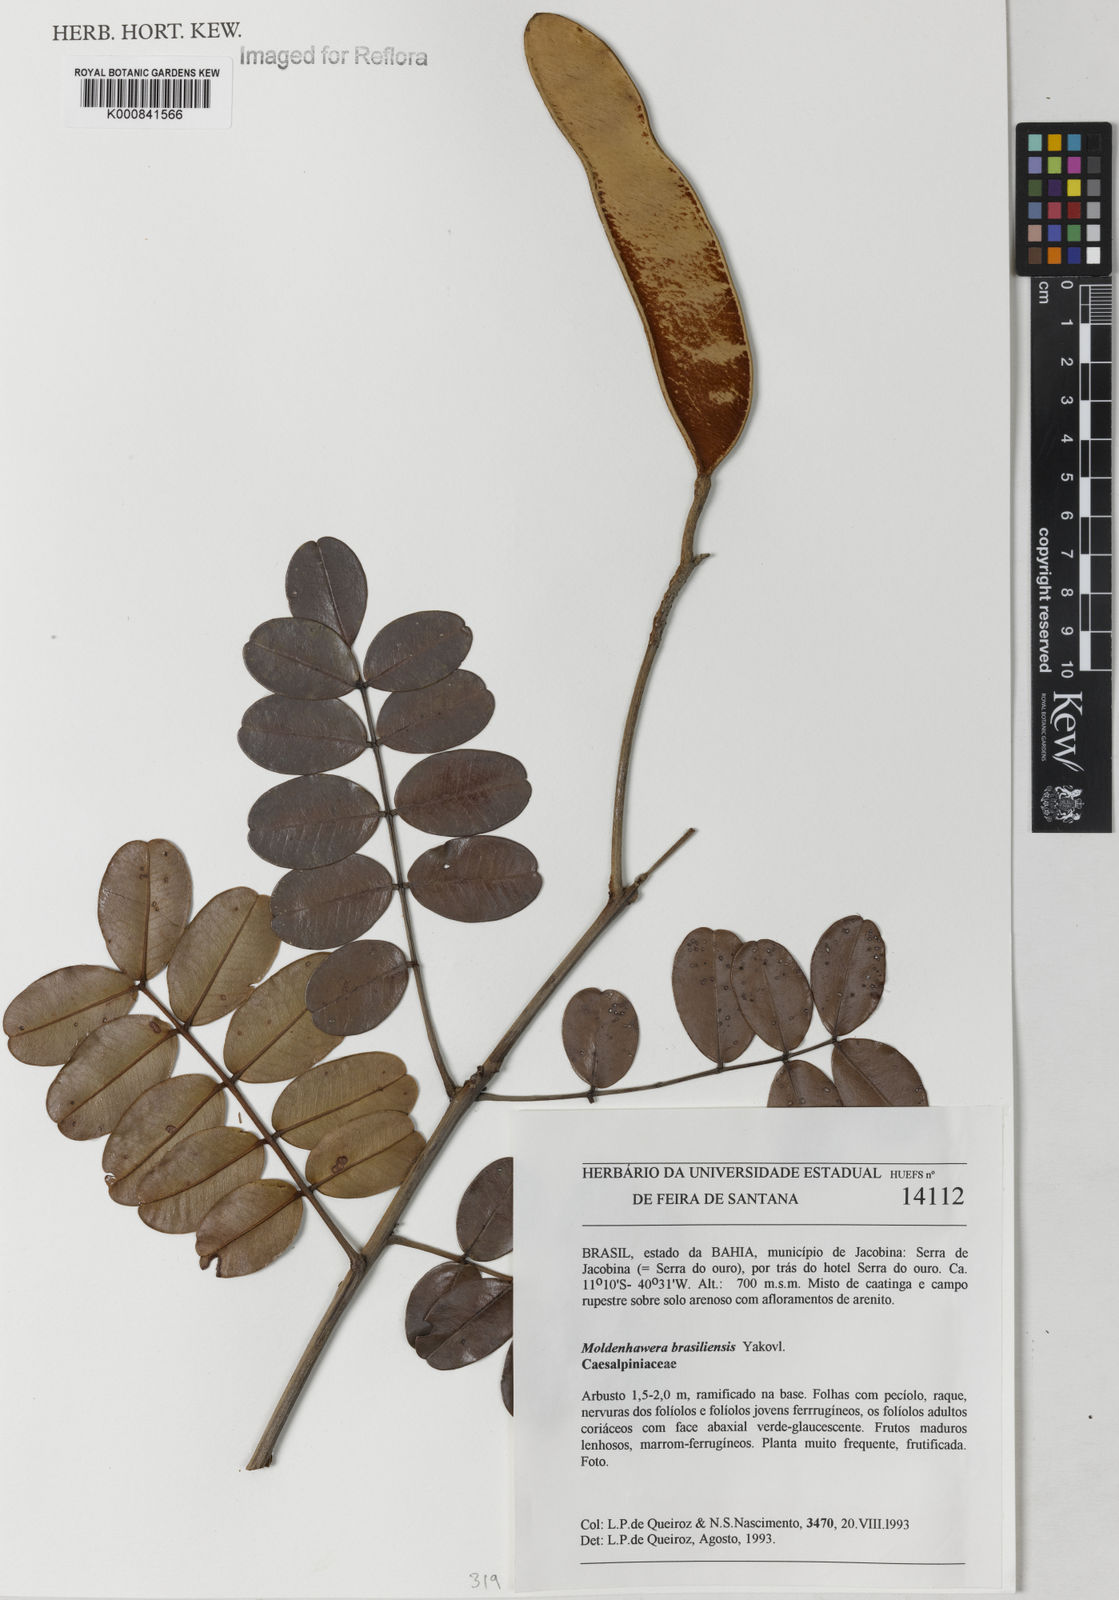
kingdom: Plantae
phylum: Tracheophyta
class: Magnoliopsida
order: Fabales
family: Fabaceae
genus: Moldenhawera
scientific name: Moldenhawera brasiliensis
